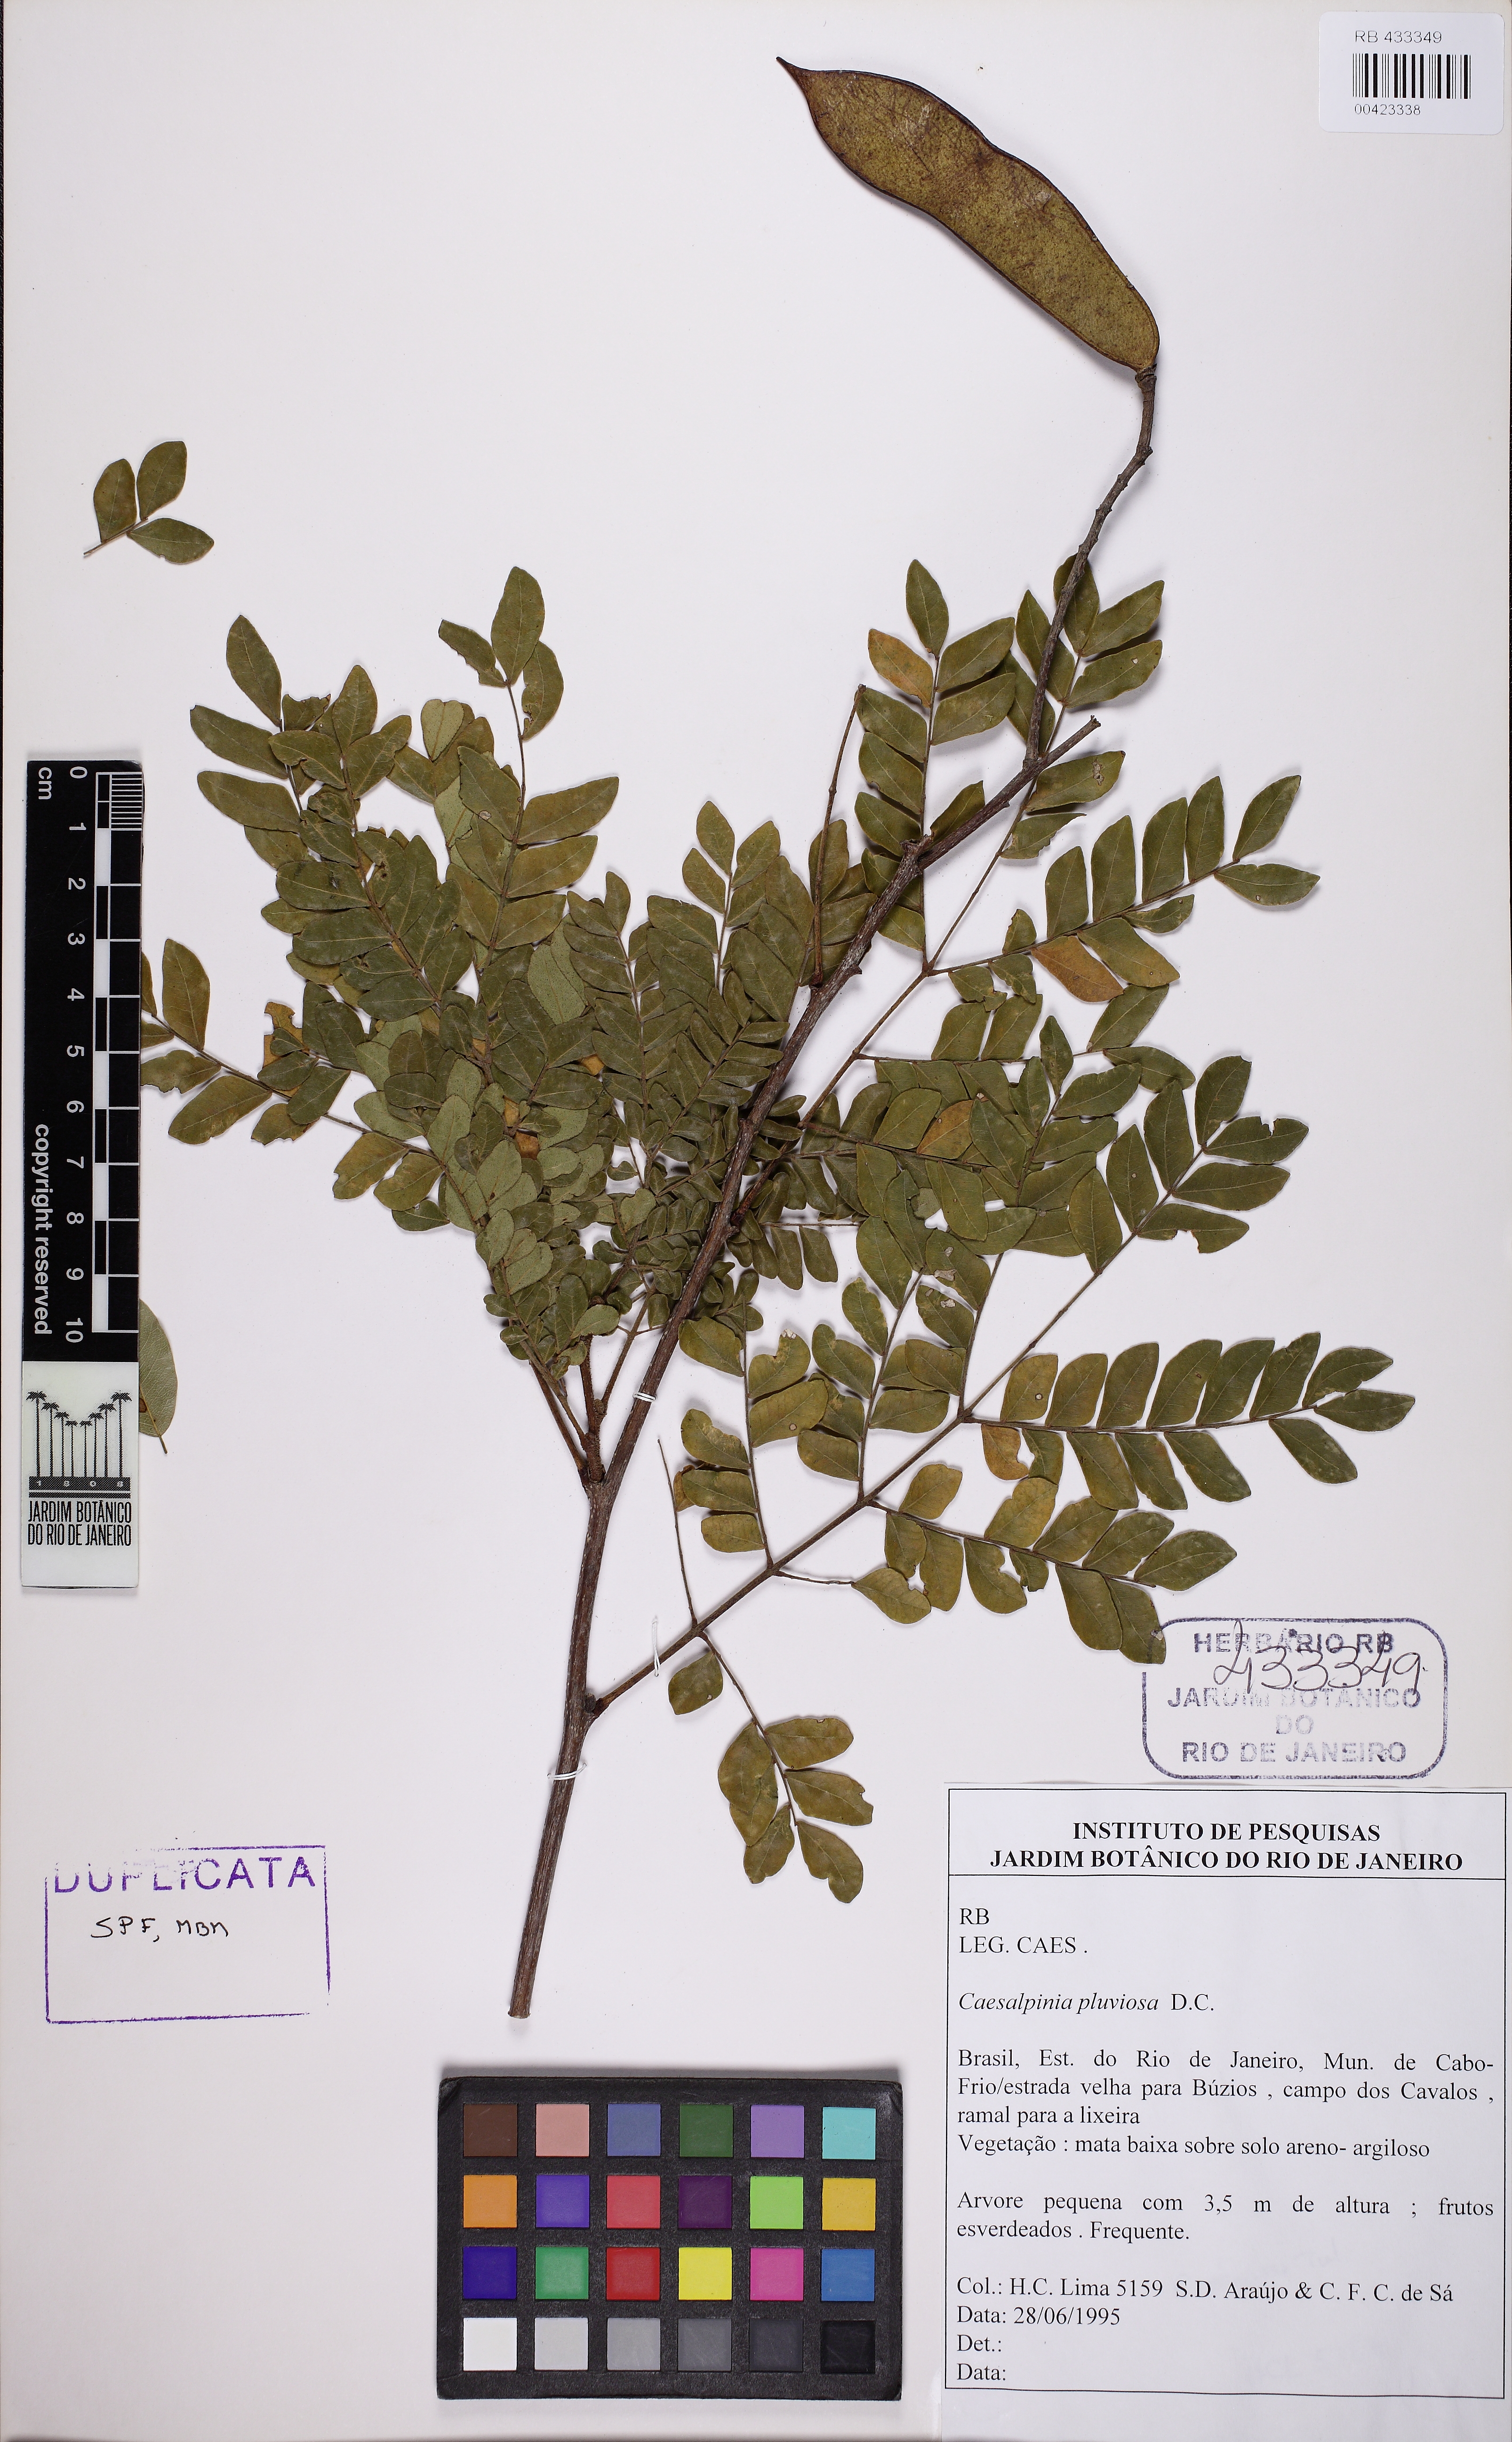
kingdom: Plantae
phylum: Tracheophyta
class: Magnoliopsida
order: Fabales
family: Fabaceae
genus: Cenostigma
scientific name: Cenostigma pluviosum
